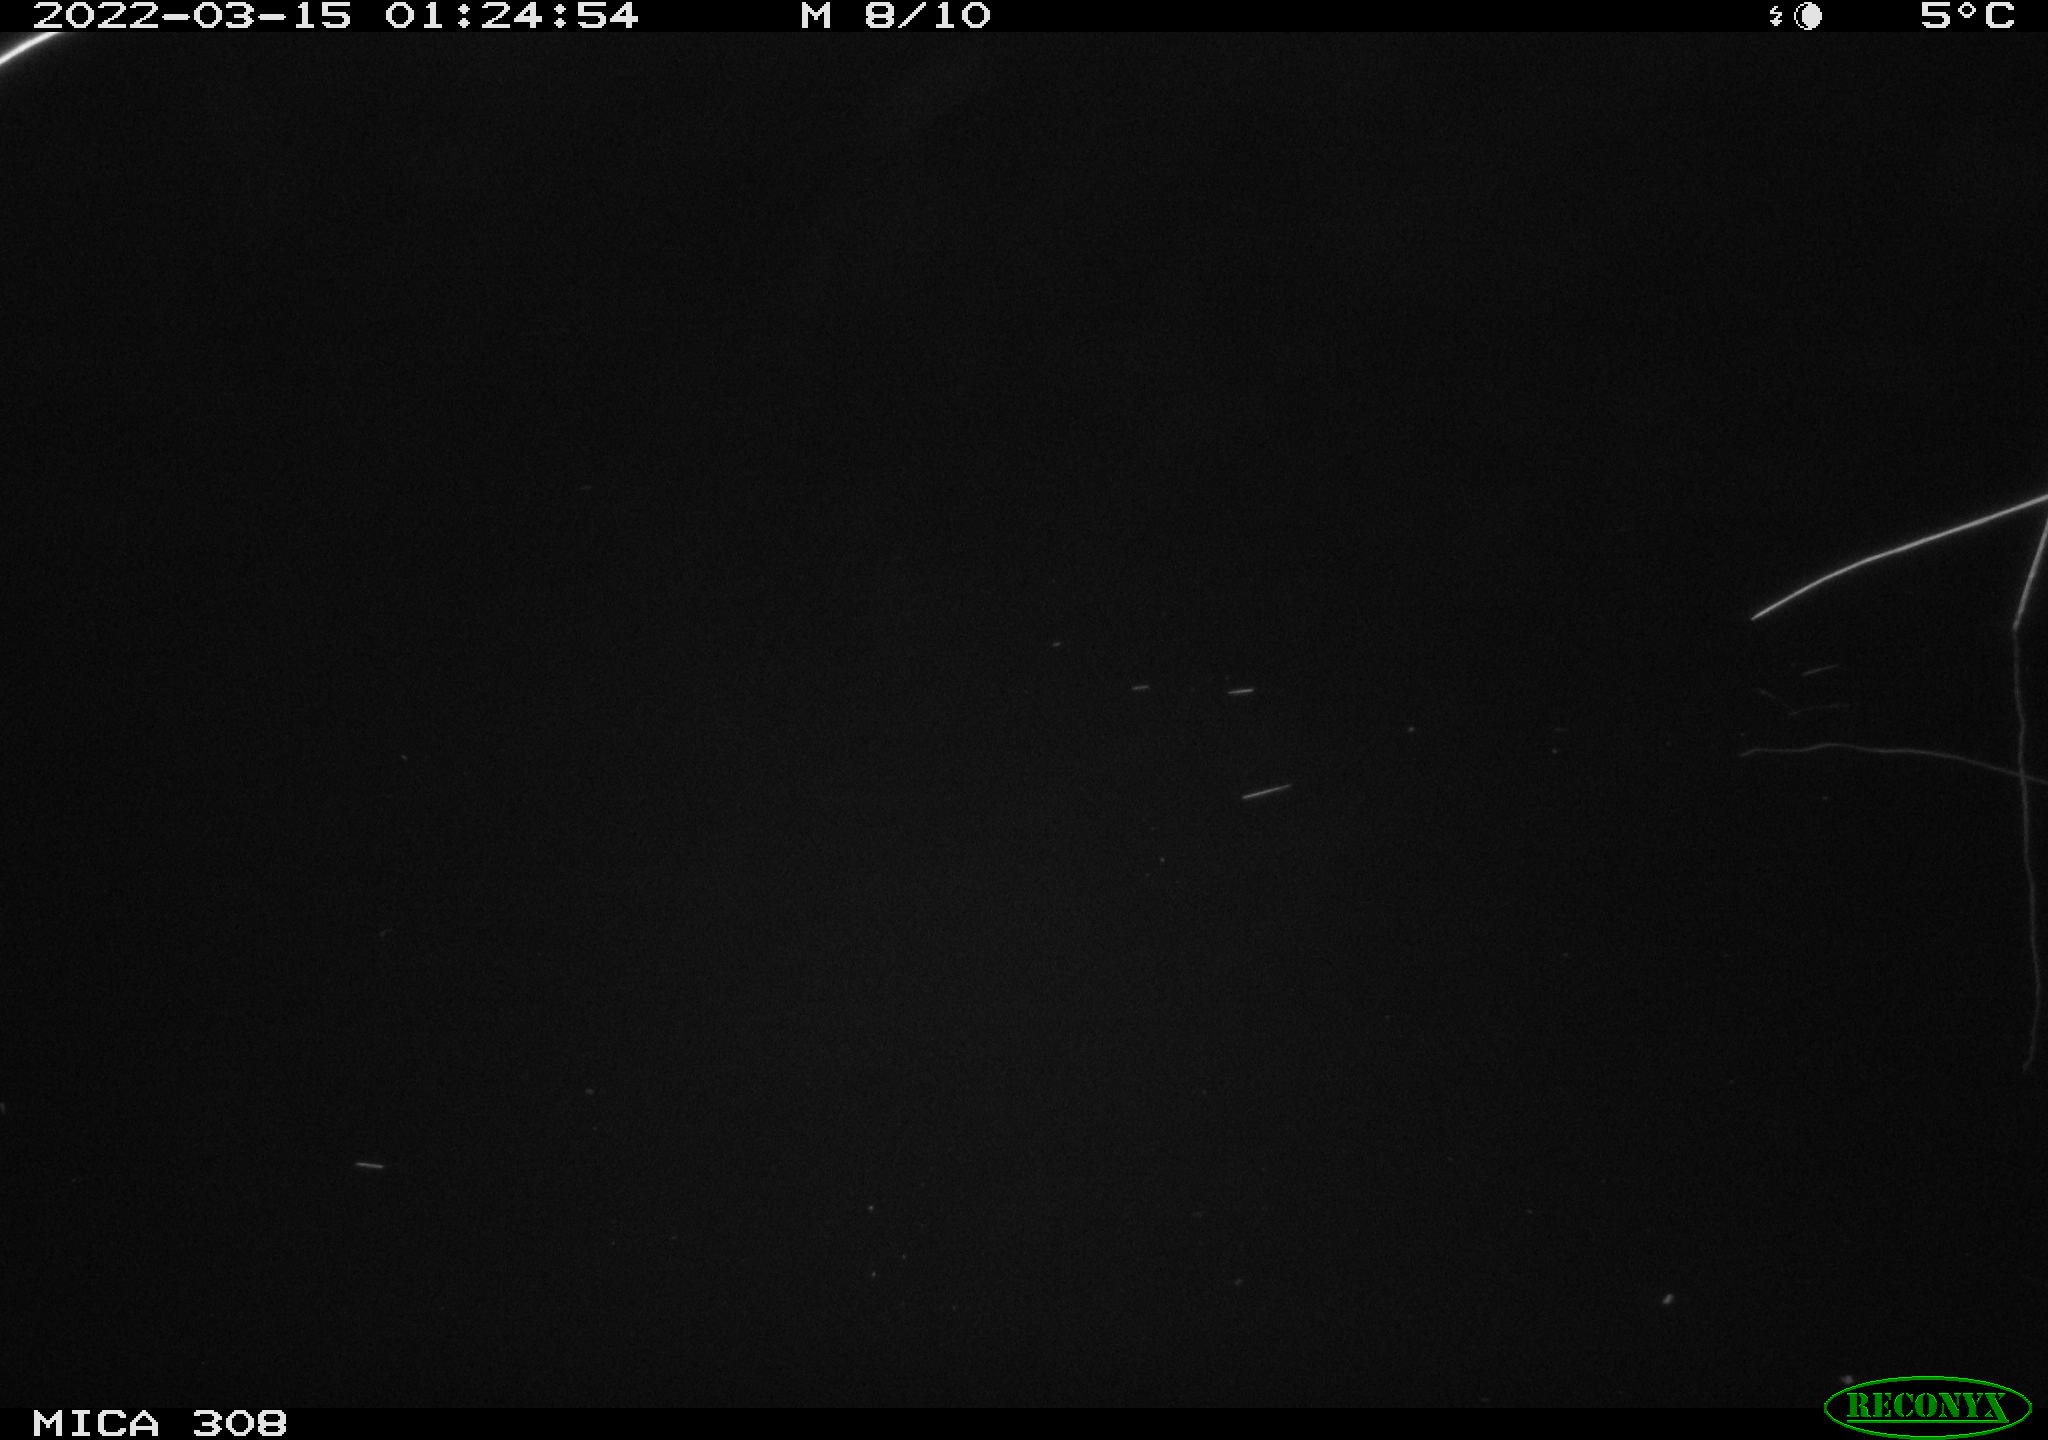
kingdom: Animalia
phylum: Chordata
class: Mammalia
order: Rodentia
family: Cricetidae
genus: Ondatra
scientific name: Ondatra zibethicus
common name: Muskrat
